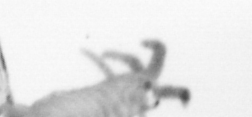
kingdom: Animalia
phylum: Annelida
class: Polychaeta
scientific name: Polychaeta
